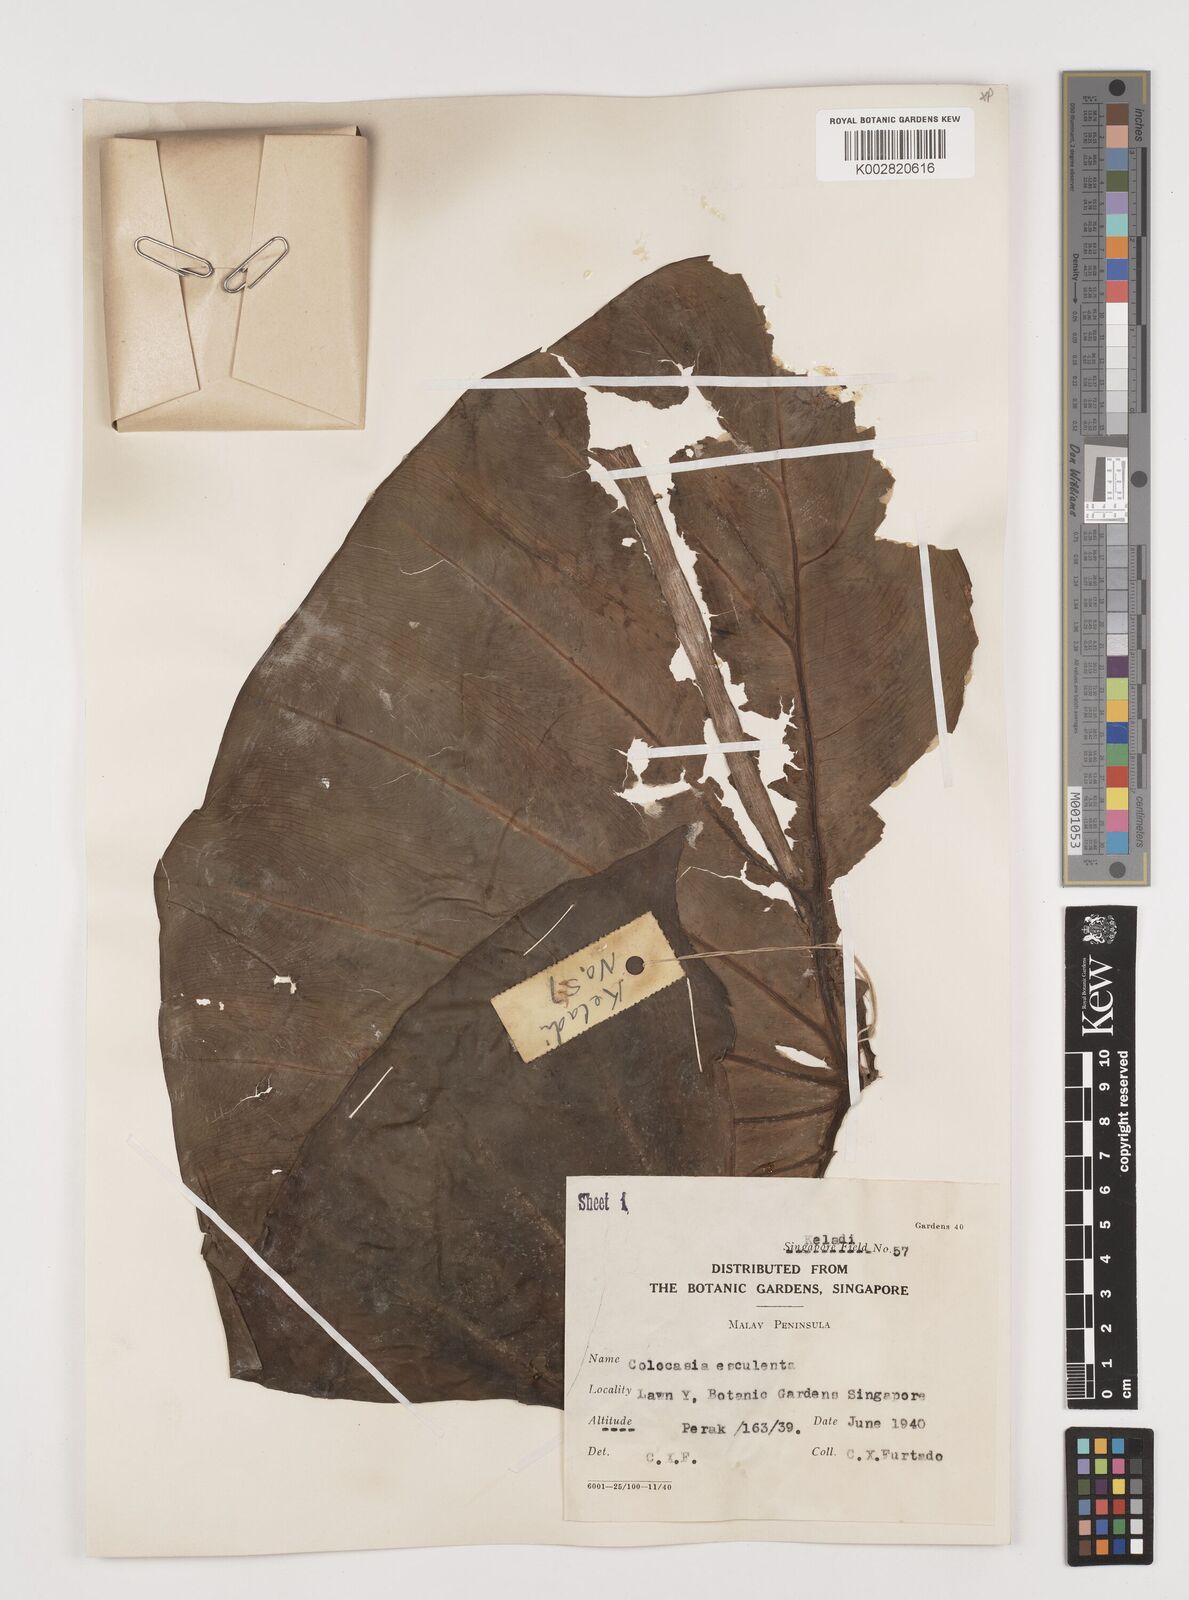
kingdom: Plantae
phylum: Tracheophyta
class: Liliopsida
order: Alismatales
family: Araceae
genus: Colocasia
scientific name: Colocasia esculenta
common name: Taro
